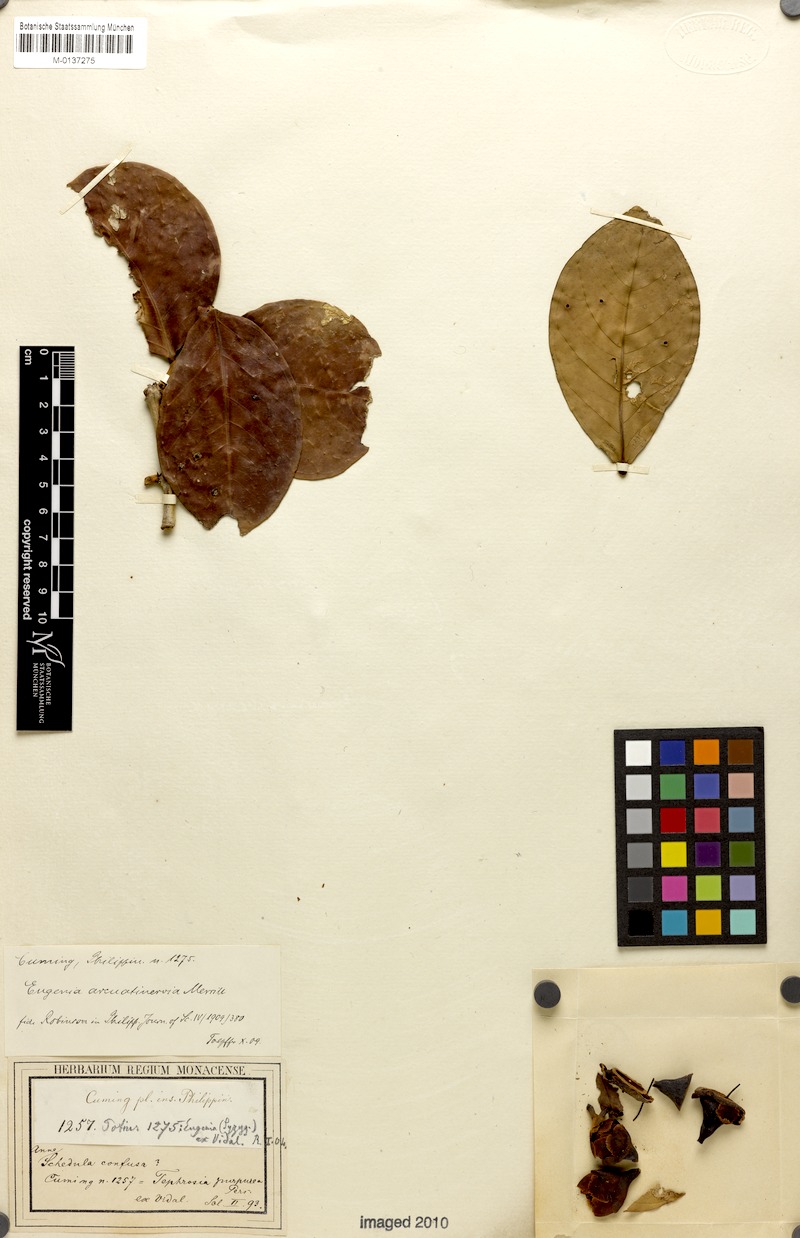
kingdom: Plantae
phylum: Tracheophyta
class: Magnoliopsida
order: Myrtales
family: Myrtaceae
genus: Syzygium
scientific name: Syzygium arcuatinervium
